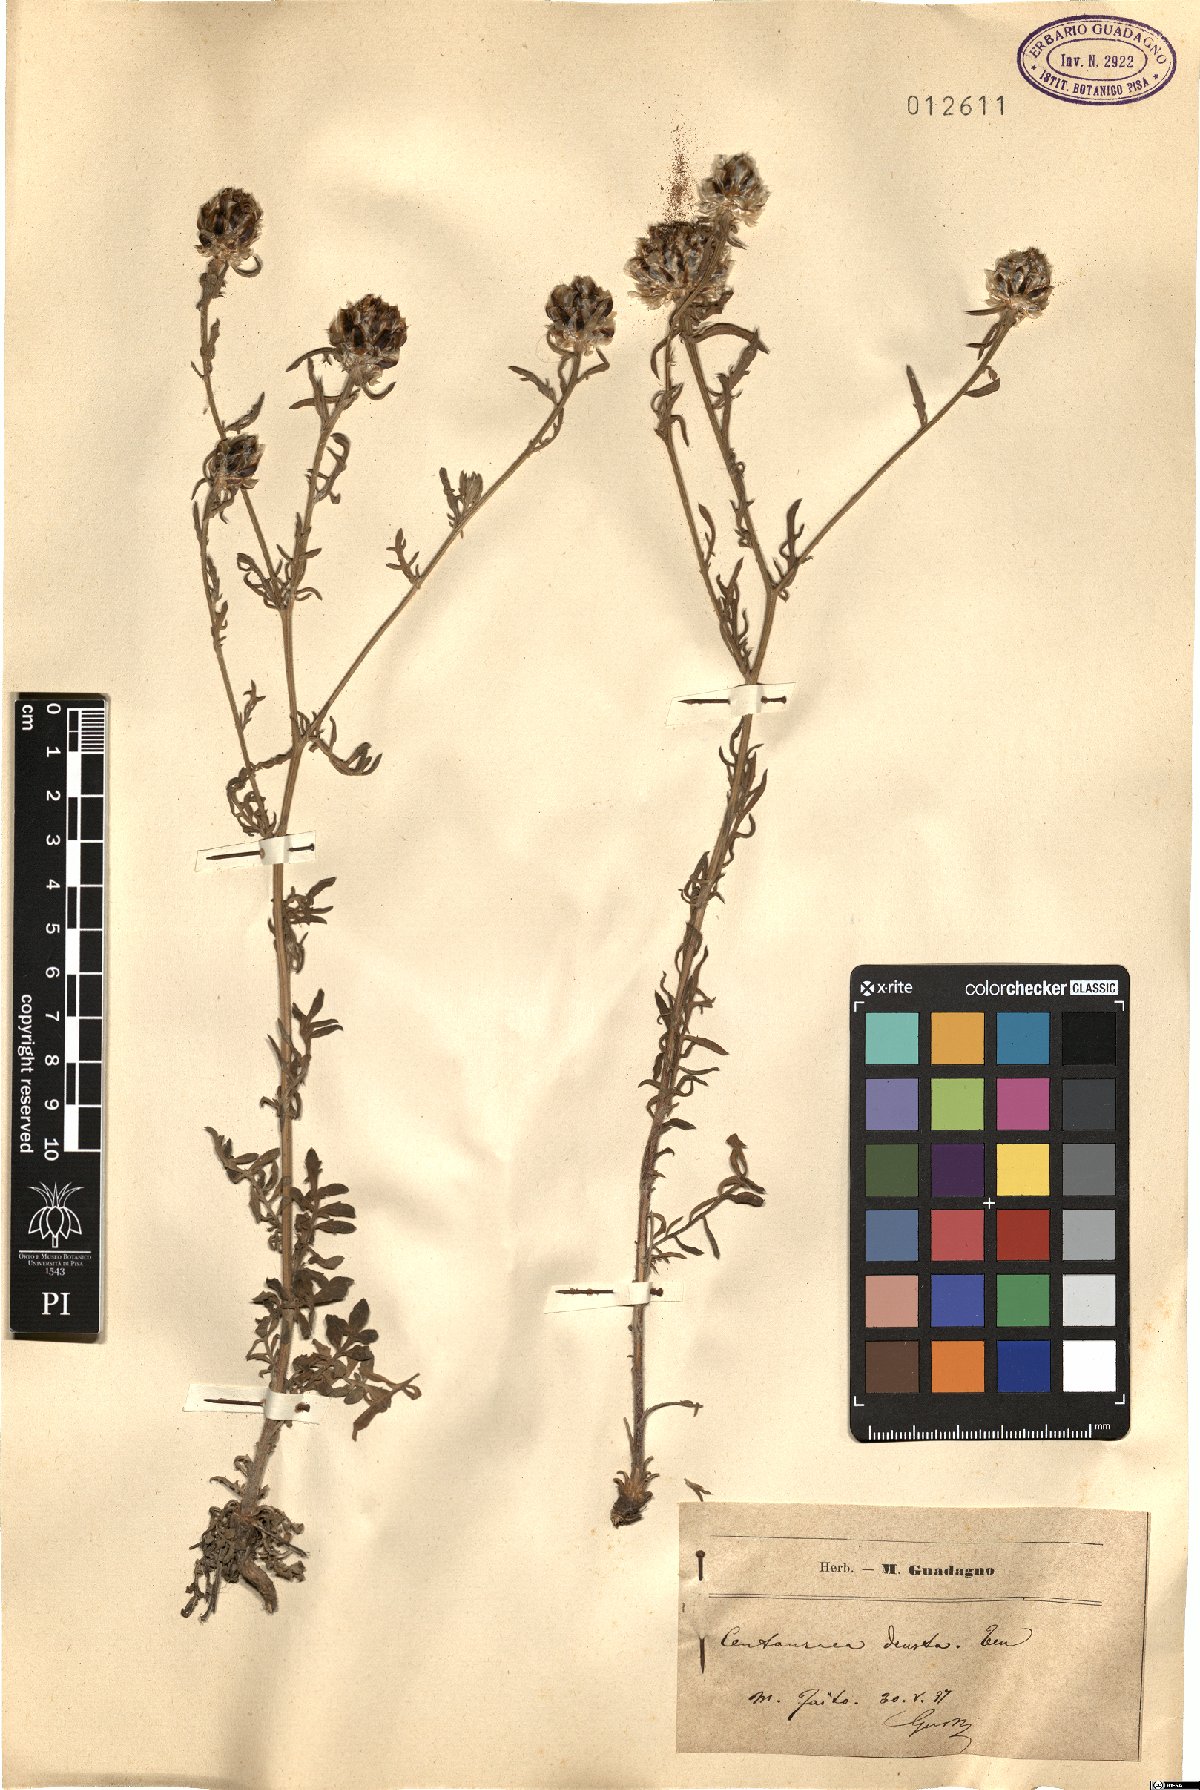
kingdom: Plantae
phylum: Tracheophyta
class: Magnoliopsida
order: Asterales
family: Asteraceae
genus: Centaurea
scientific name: Centaurea deusta
